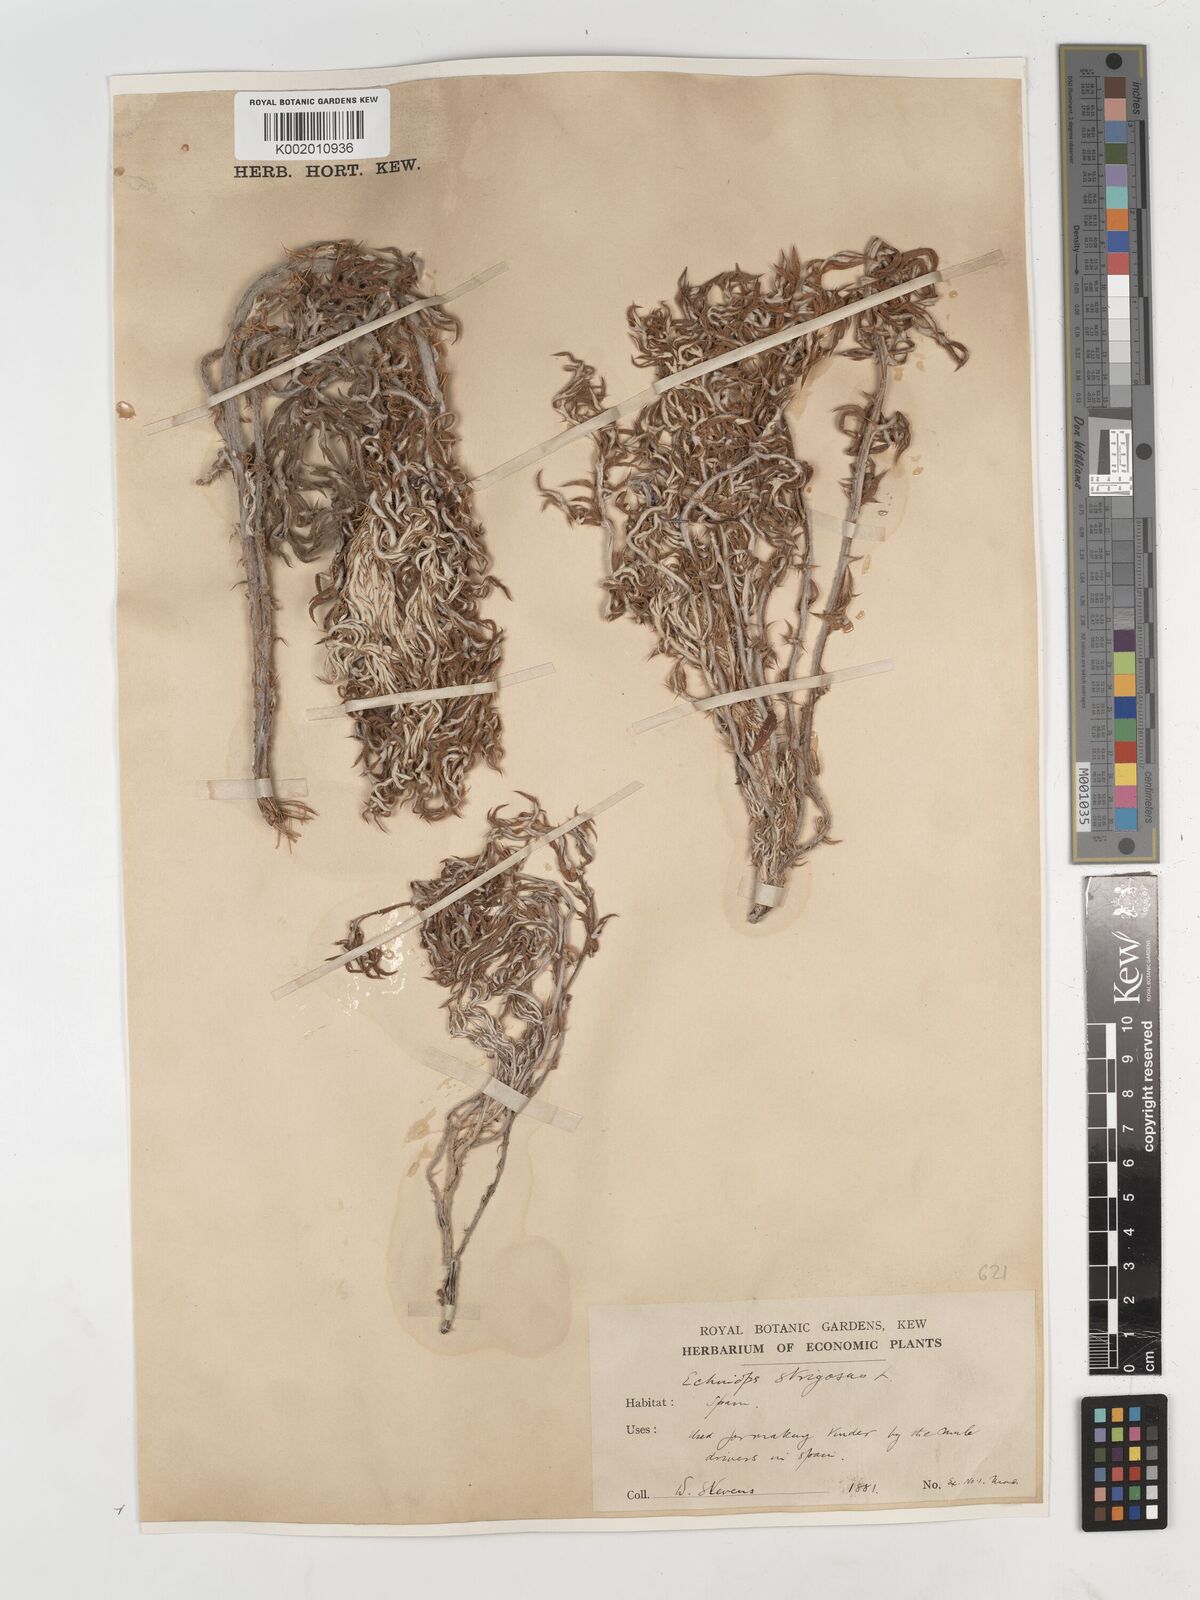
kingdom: Plantae
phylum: Tracheophyta
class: Magnoliopsida
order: Asterales
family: Asteraceae
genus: Echinops
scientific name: Echinops strigosus
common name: Rough-leaf globe thistle
